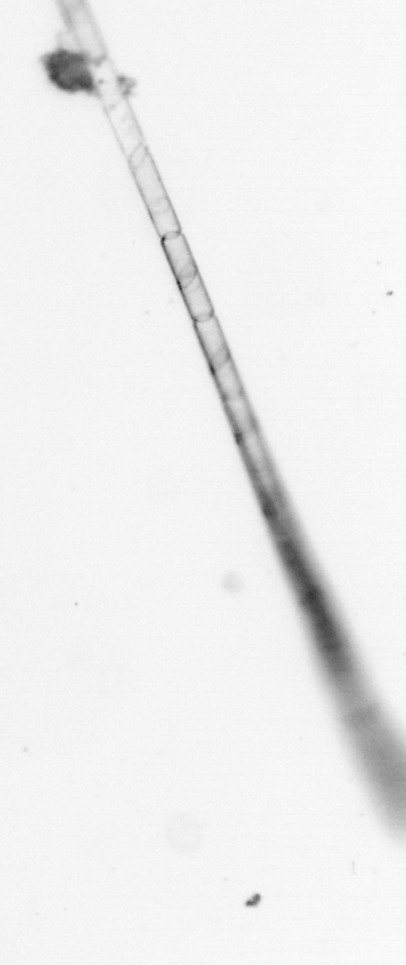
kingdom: Chromista
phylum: Ochrophyta
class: Bacillariophyceae
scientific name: Bacillariophyceae
